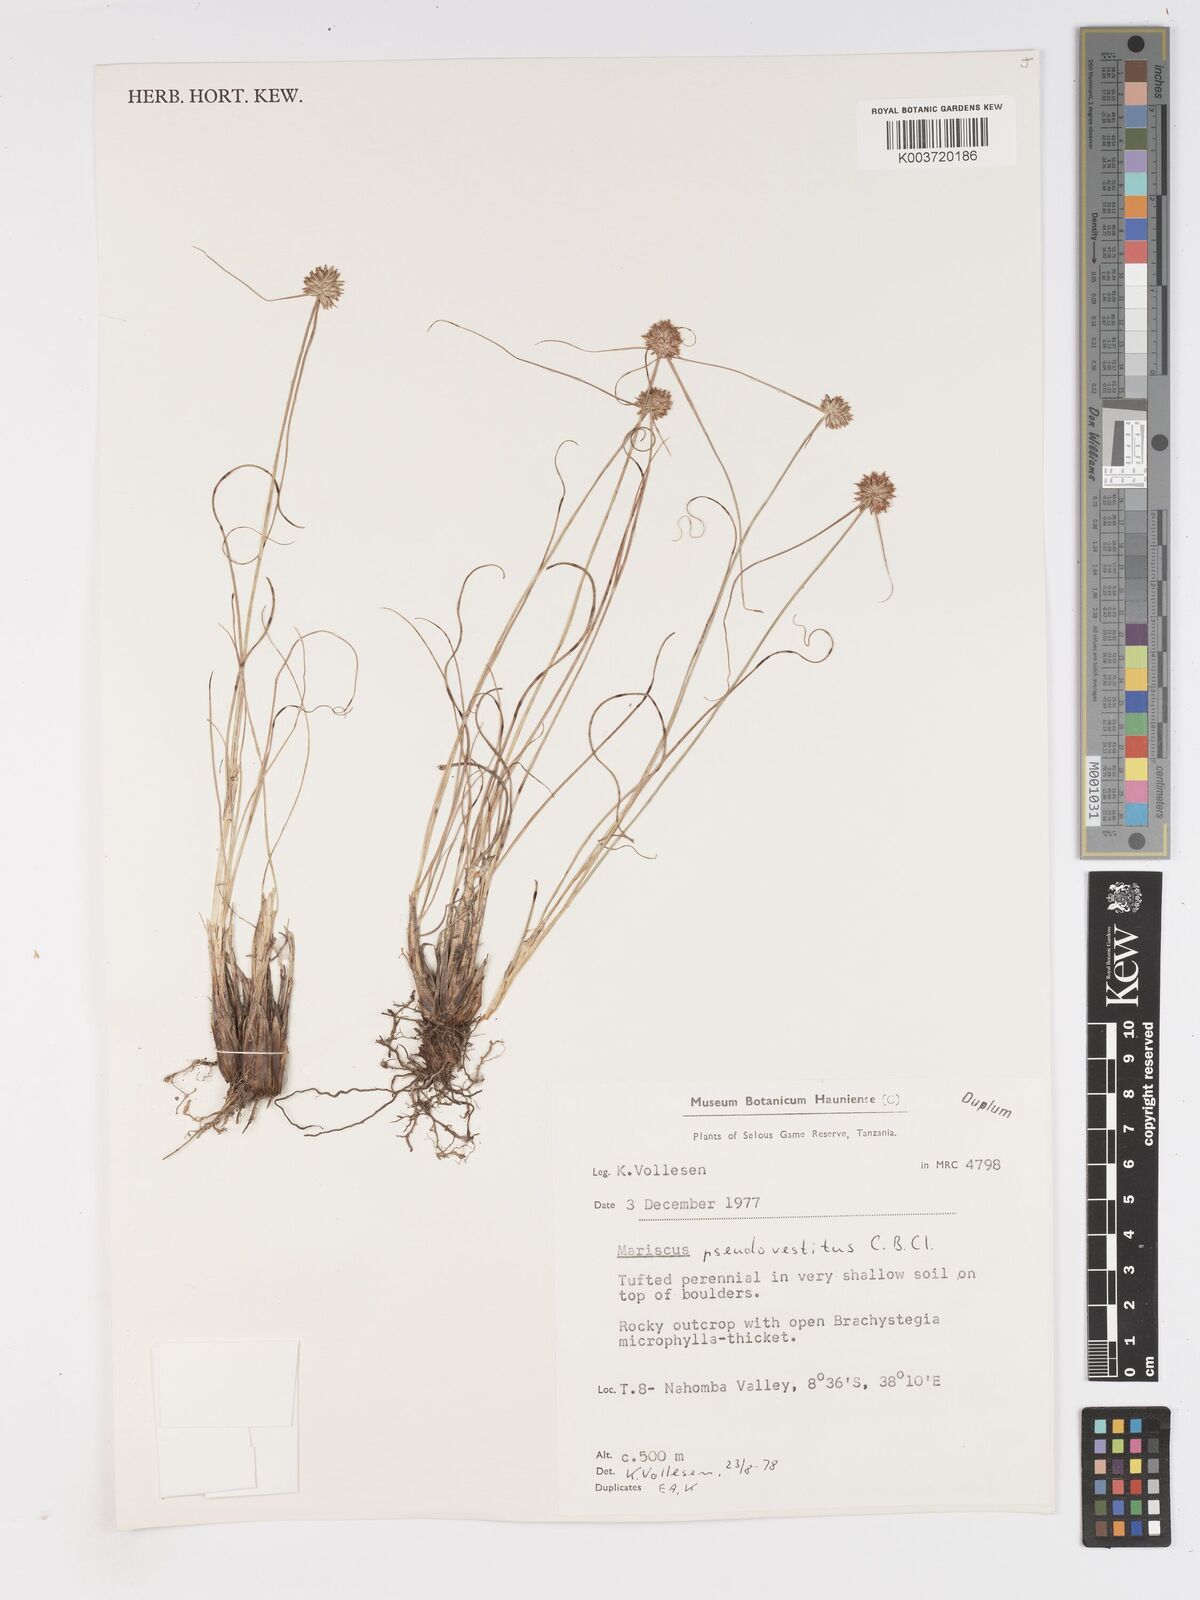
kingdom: Plantae
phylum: Tracheophyta
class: Liliopsida
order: Poales
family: Cyperaceae
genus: Cyperus
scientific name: Cyperus pseudovestitus
